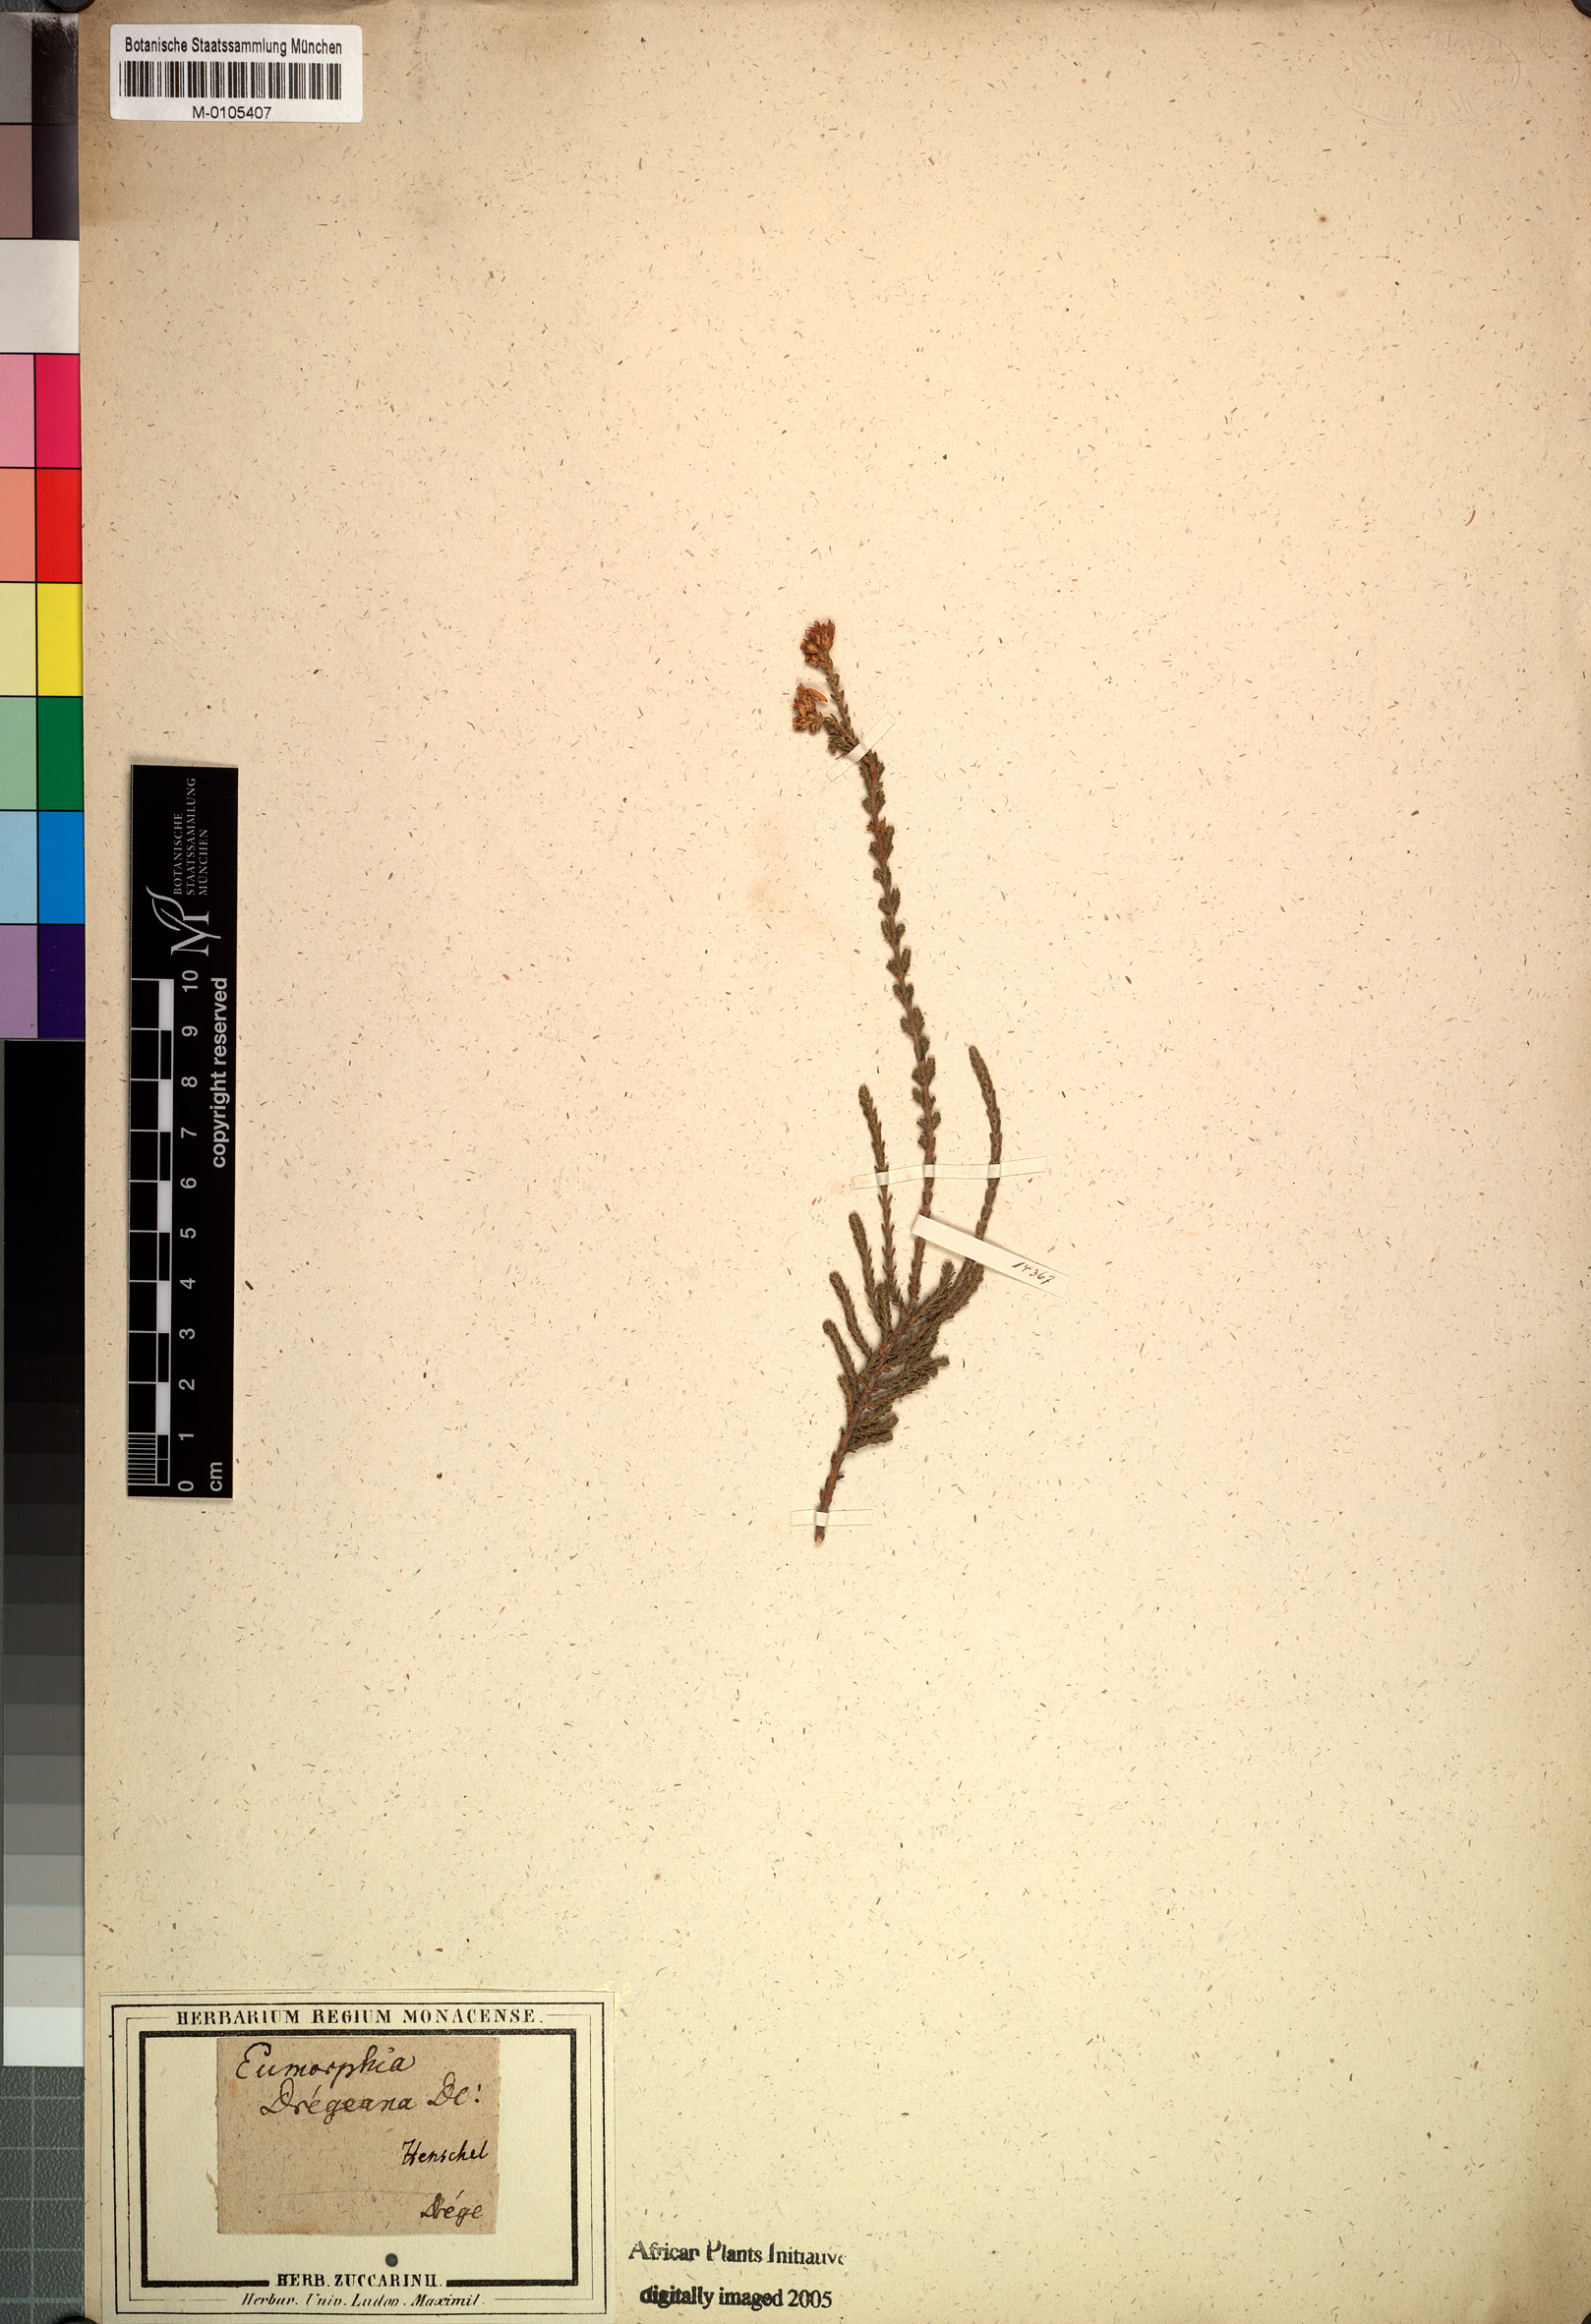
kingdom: Plantae
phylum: Tracheophyta
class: Magnoliopsida
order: Asterales
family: Asteraceae
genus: Eumorphia
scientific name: Eumorphia dregeana
